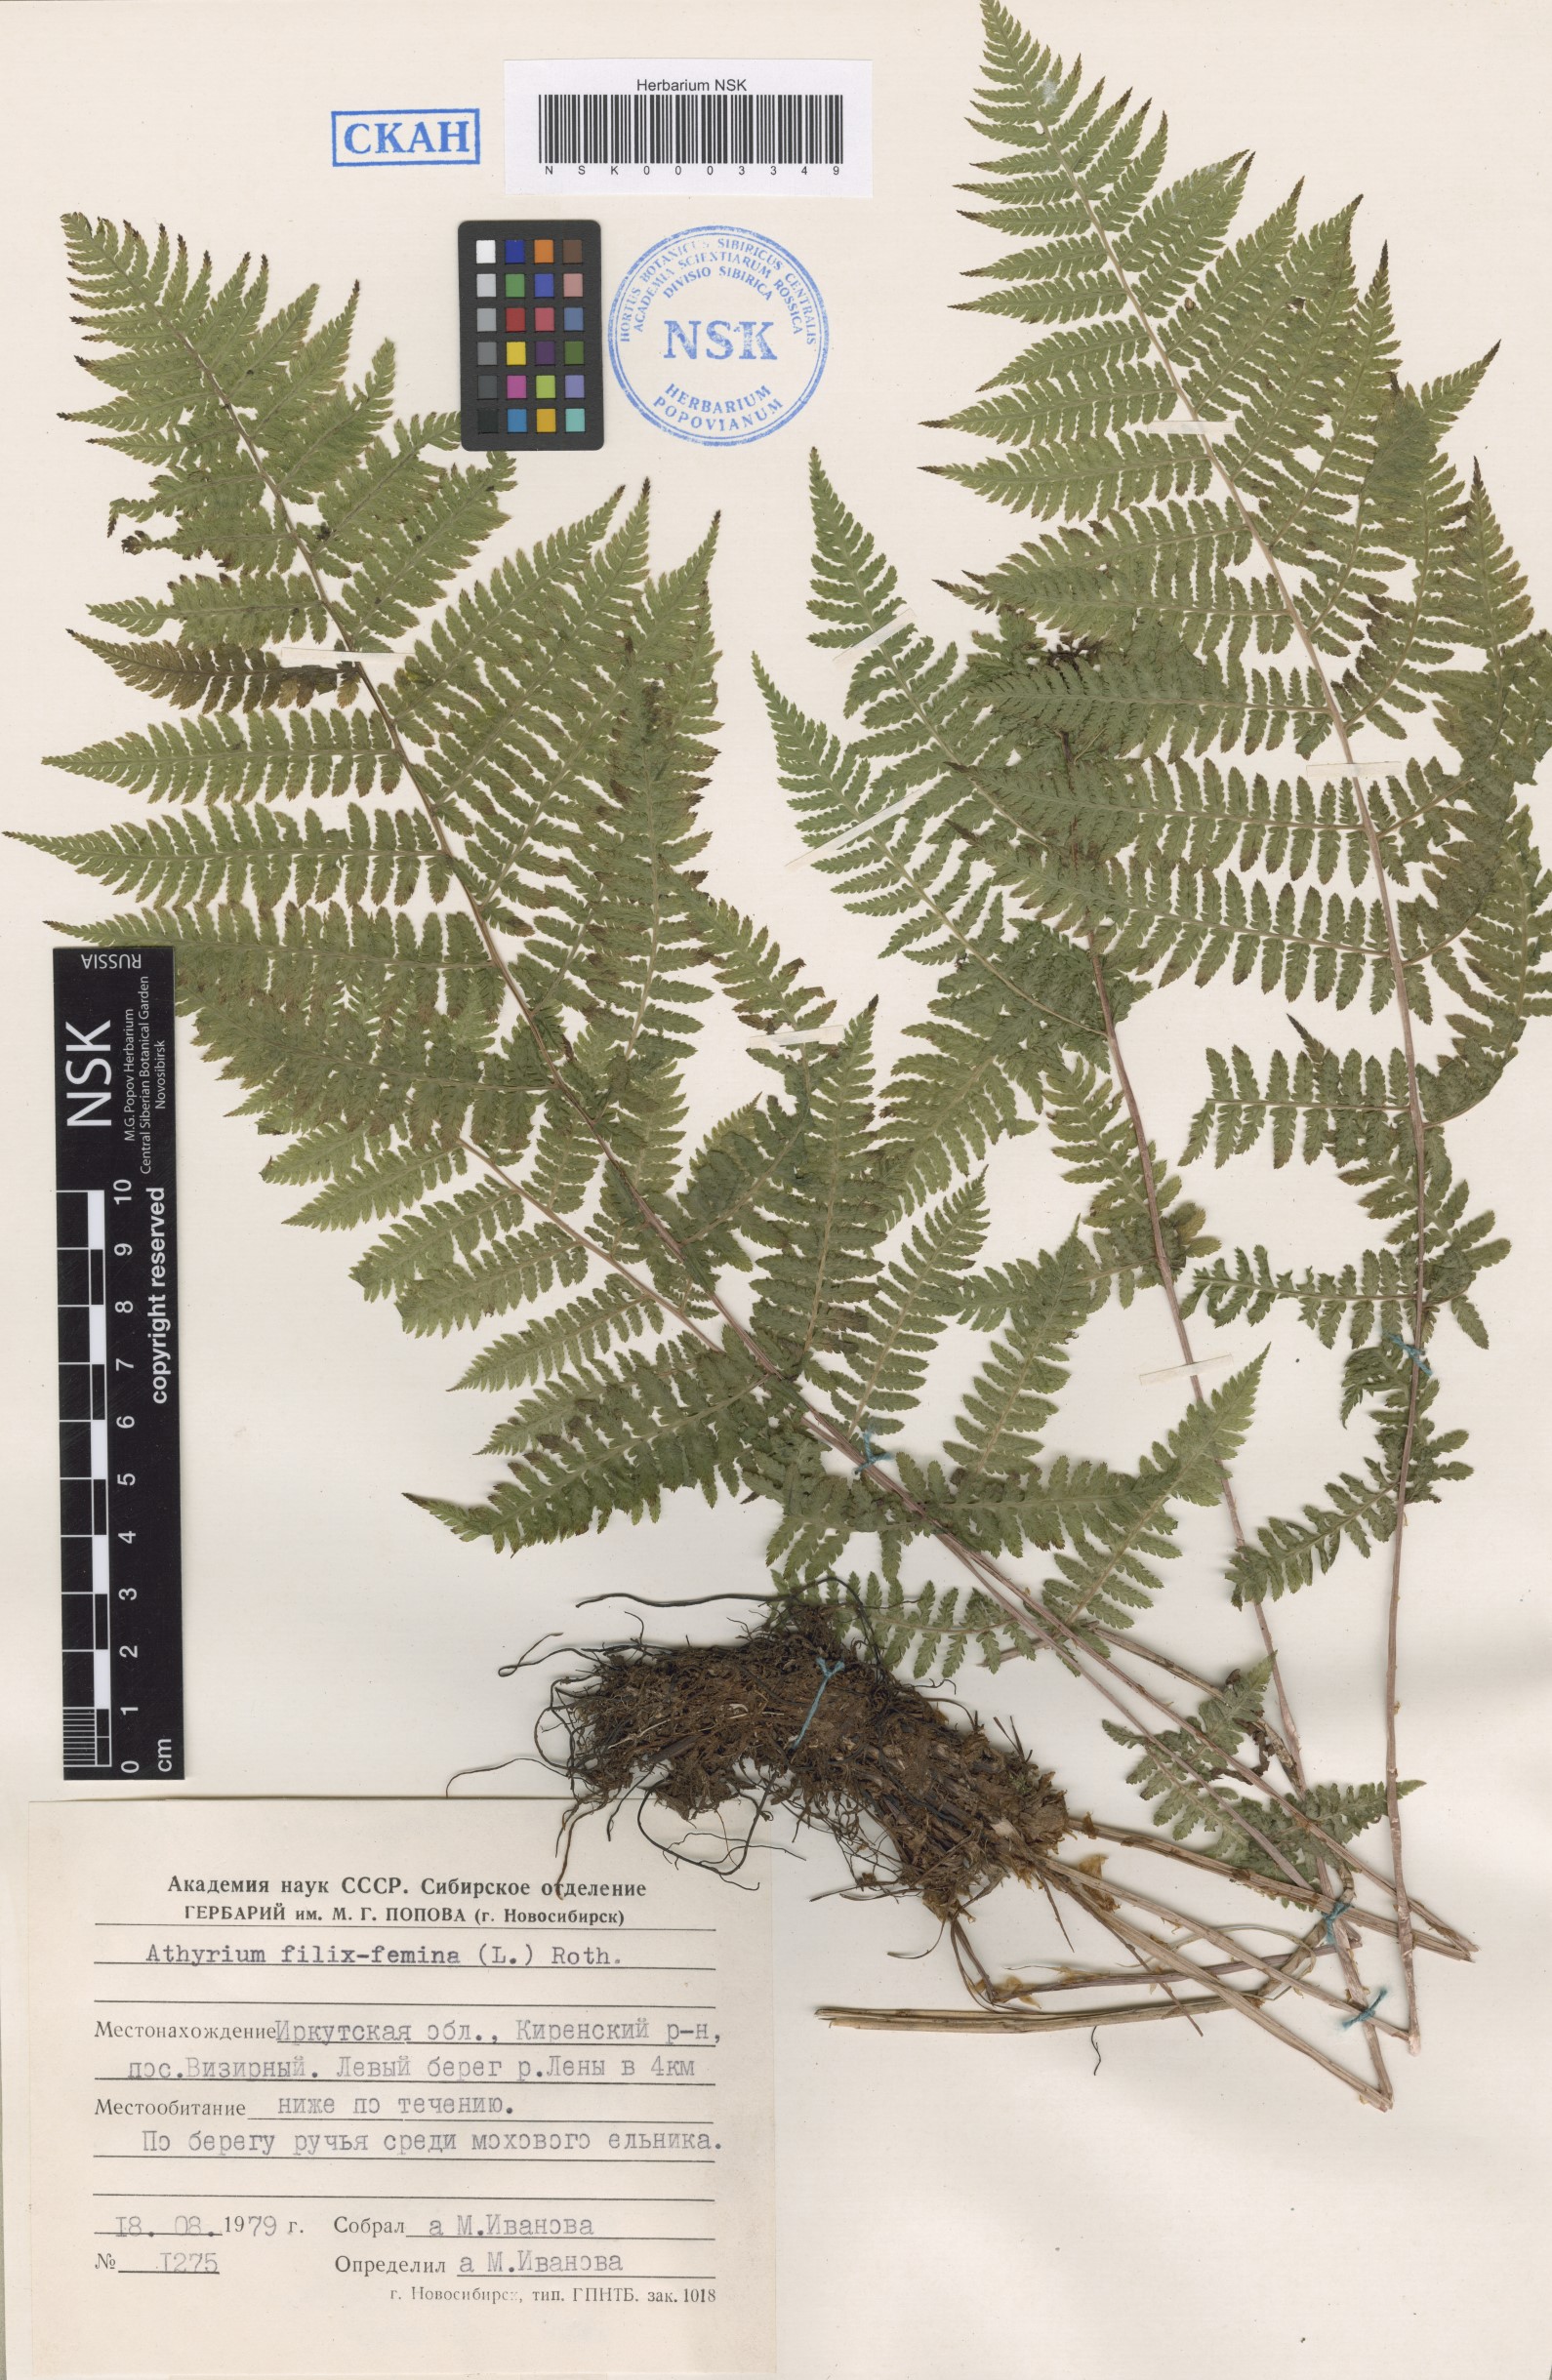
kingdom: Plantae
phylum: Tracheophyta
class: Polypodiopsida
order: Polypodiales
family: Athyriaceae
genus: Athyrium
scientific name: Athyrium filix-femina
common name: Lady fern
